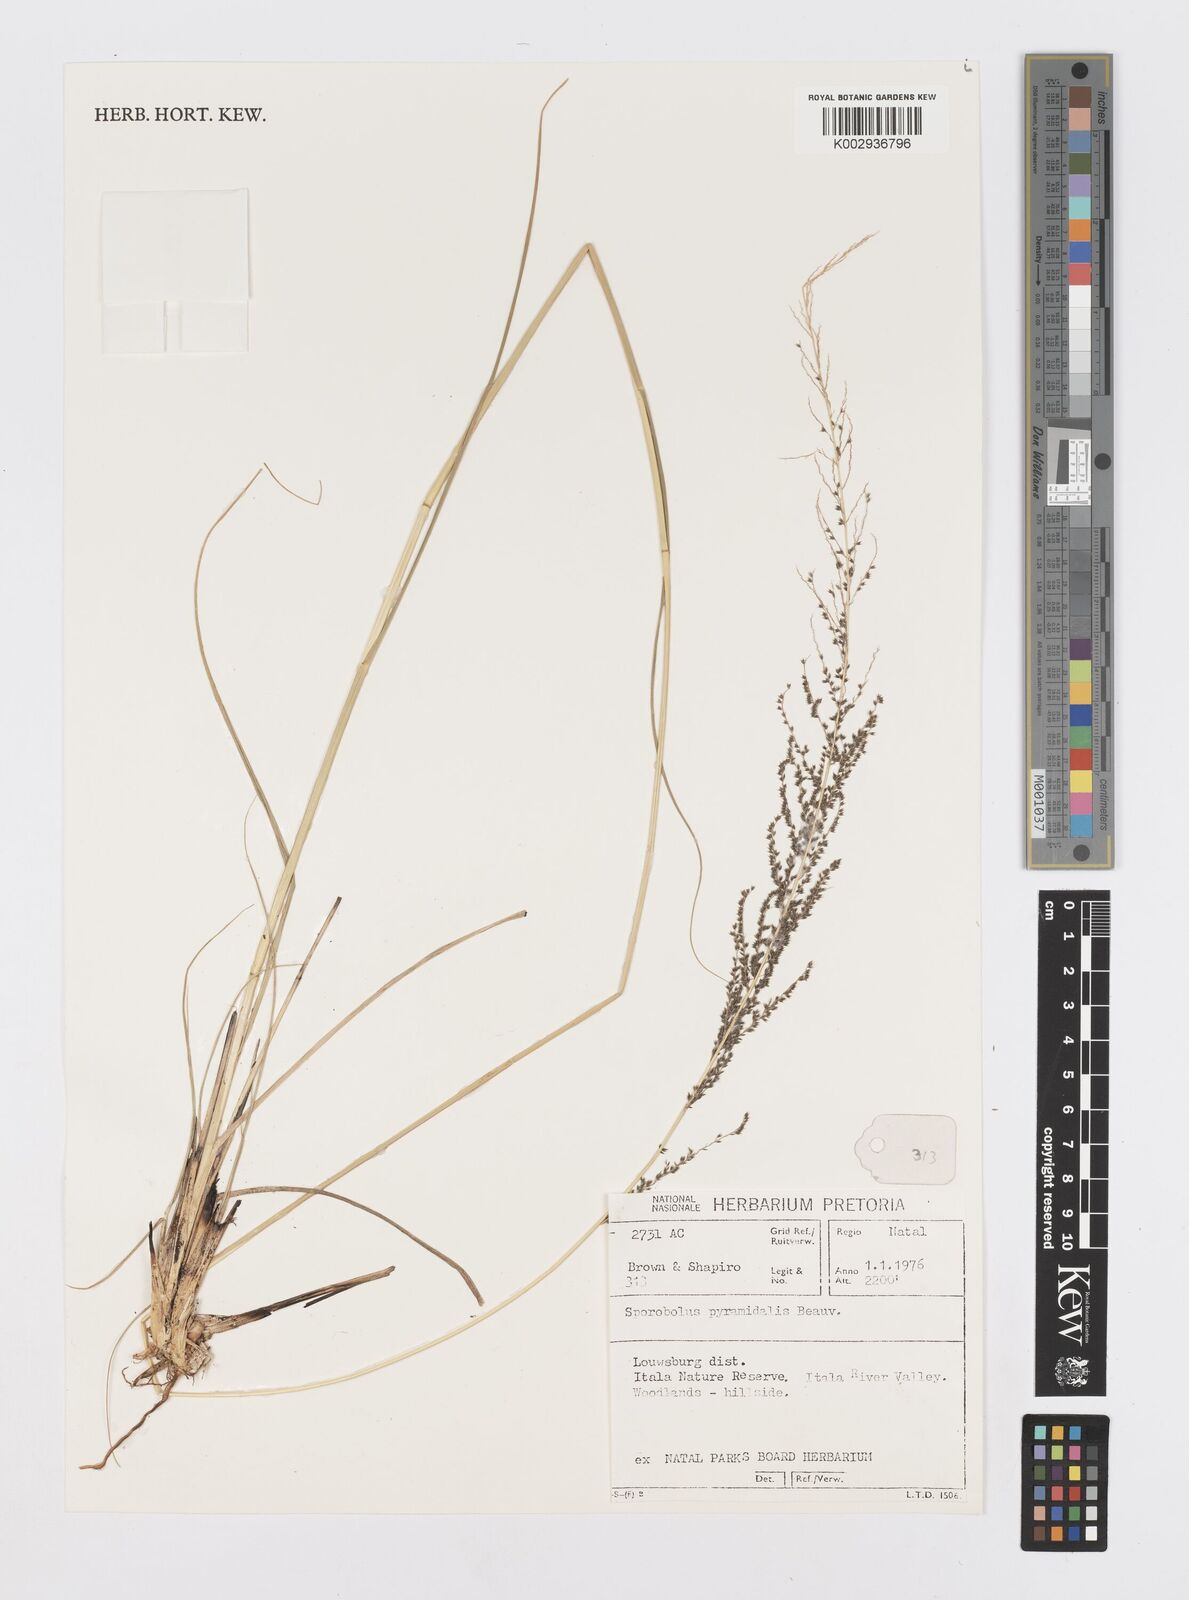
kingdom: Plantae
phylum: Tracheophyta
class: Liliopsida
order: Poales
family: Poaceae
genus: Sporobolus
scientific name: Sporobolus pyramidalis
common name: West indian dropseed
